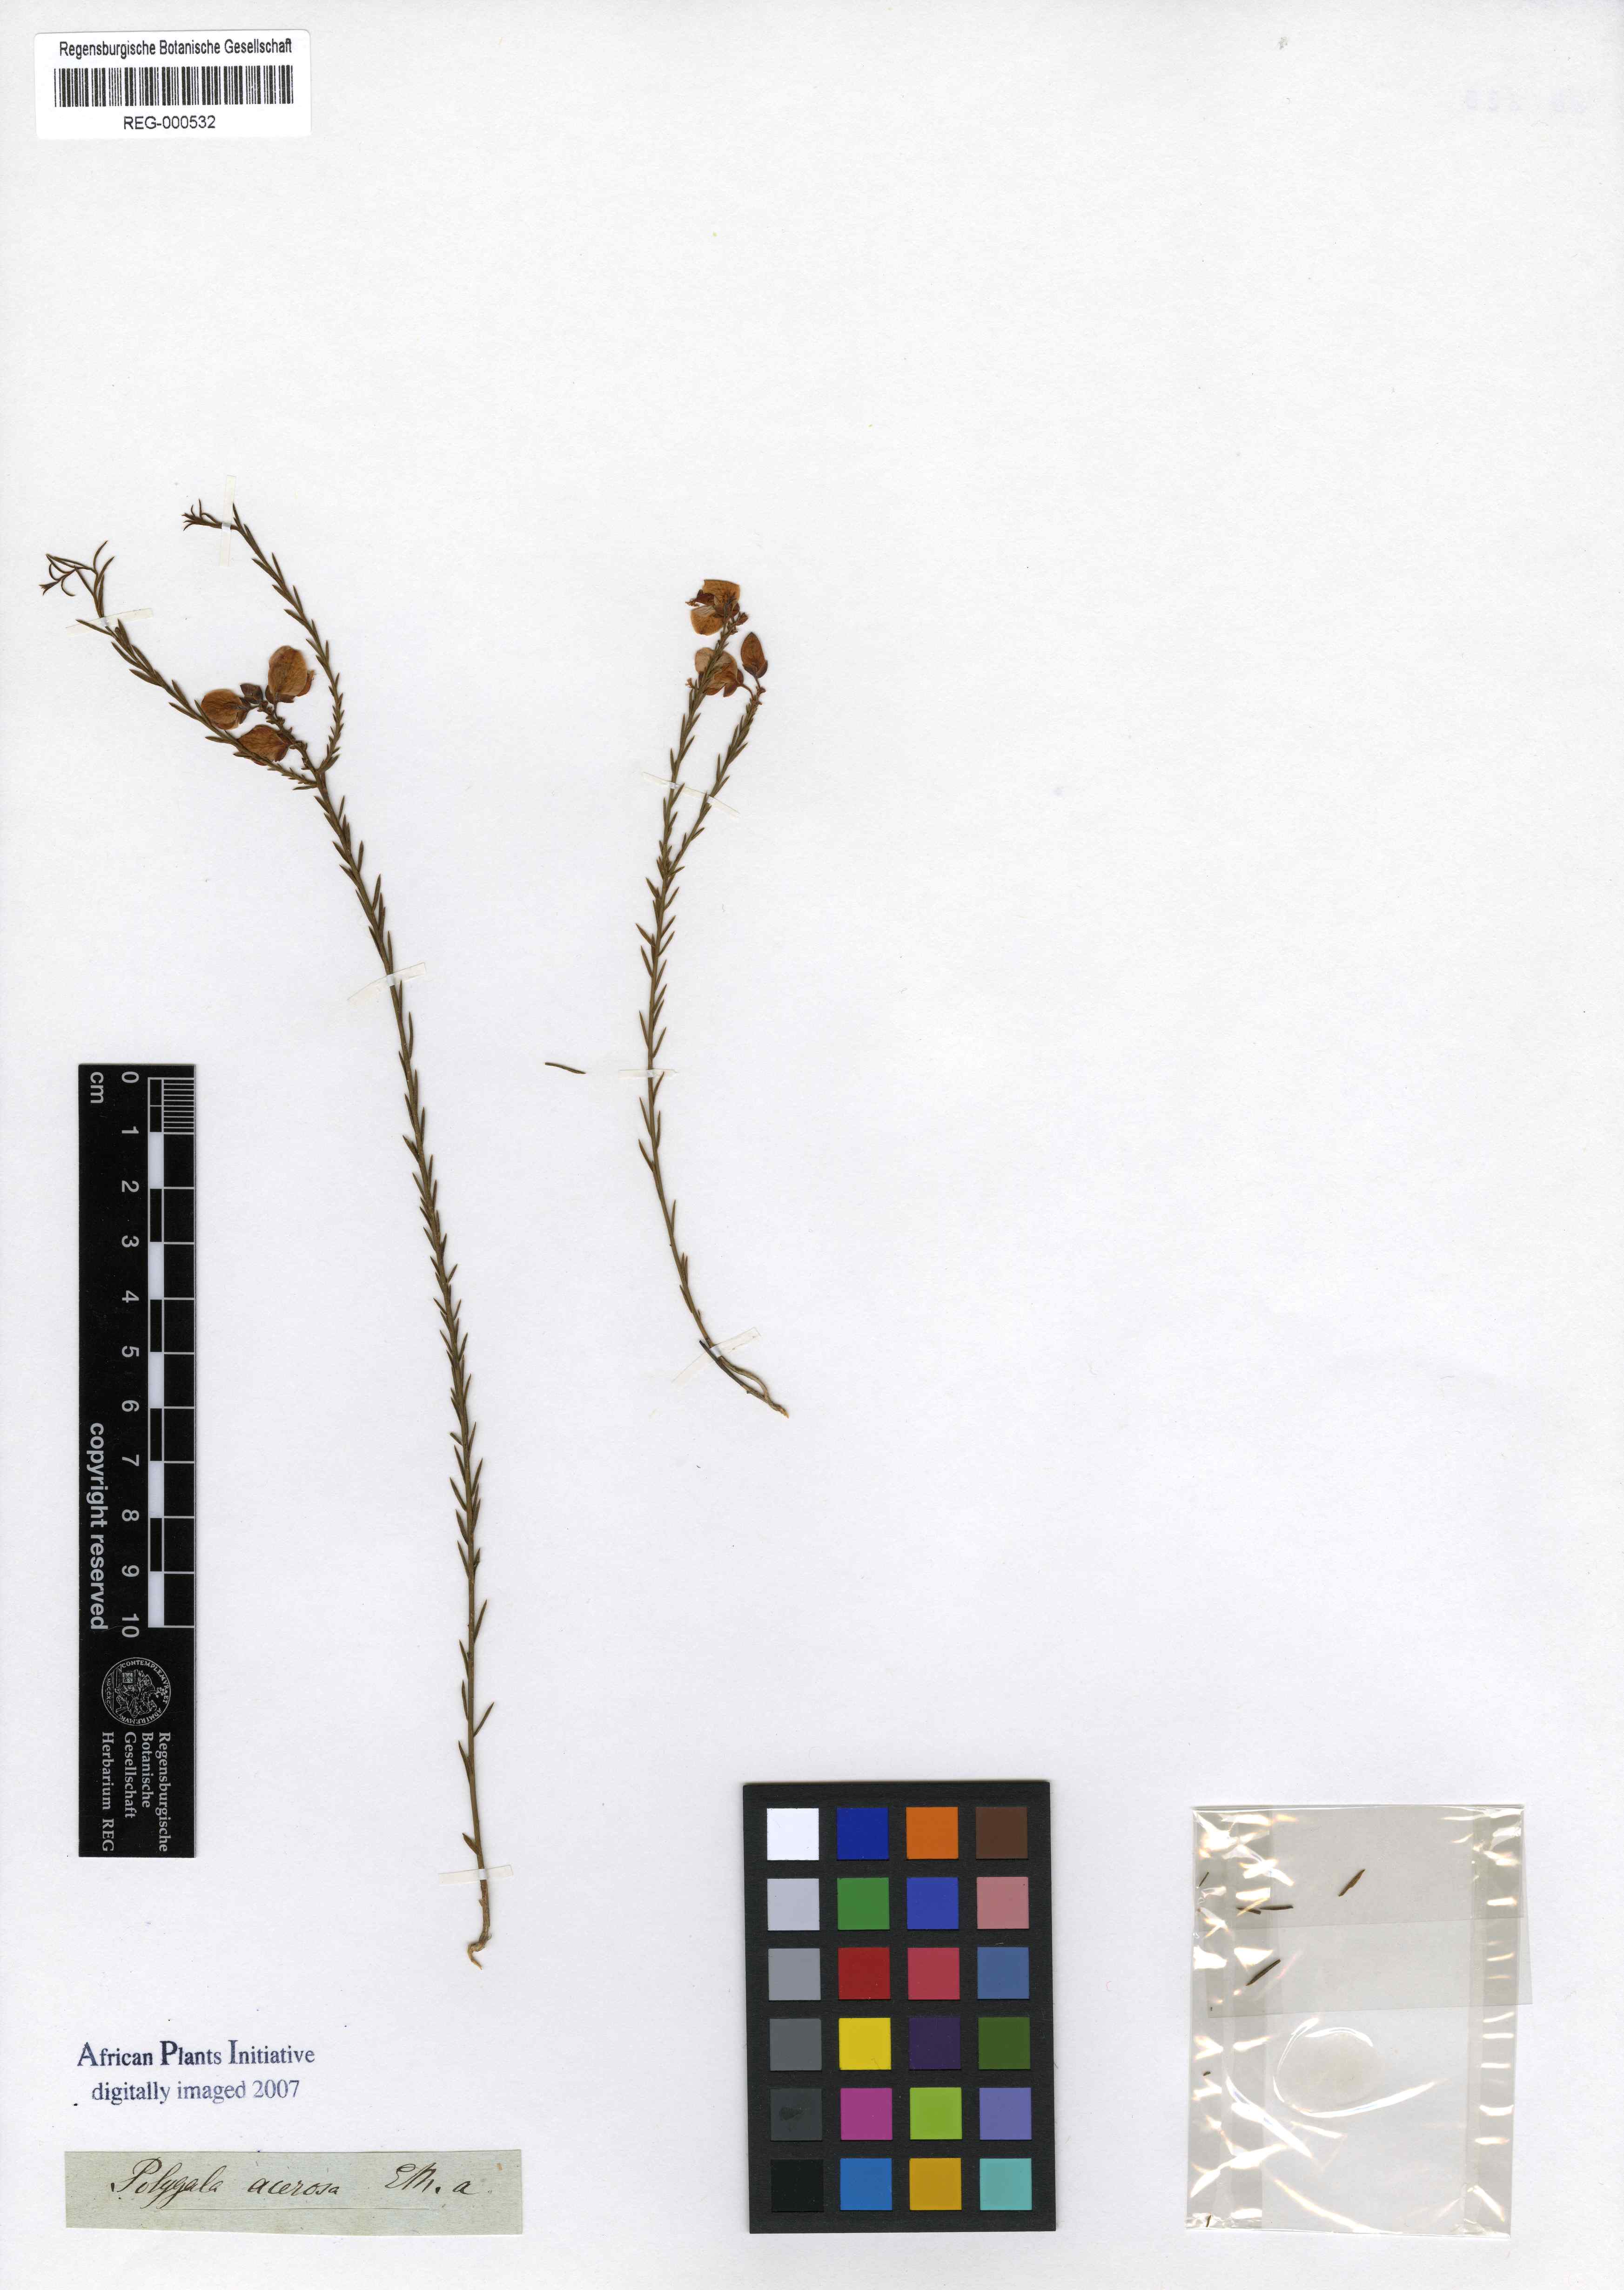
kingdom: Plantae
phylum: Tracheophyta
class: Magnoliopsida
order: Fabales
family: Polygalaceae
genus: Polygala
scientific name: Polygala ericifolia
